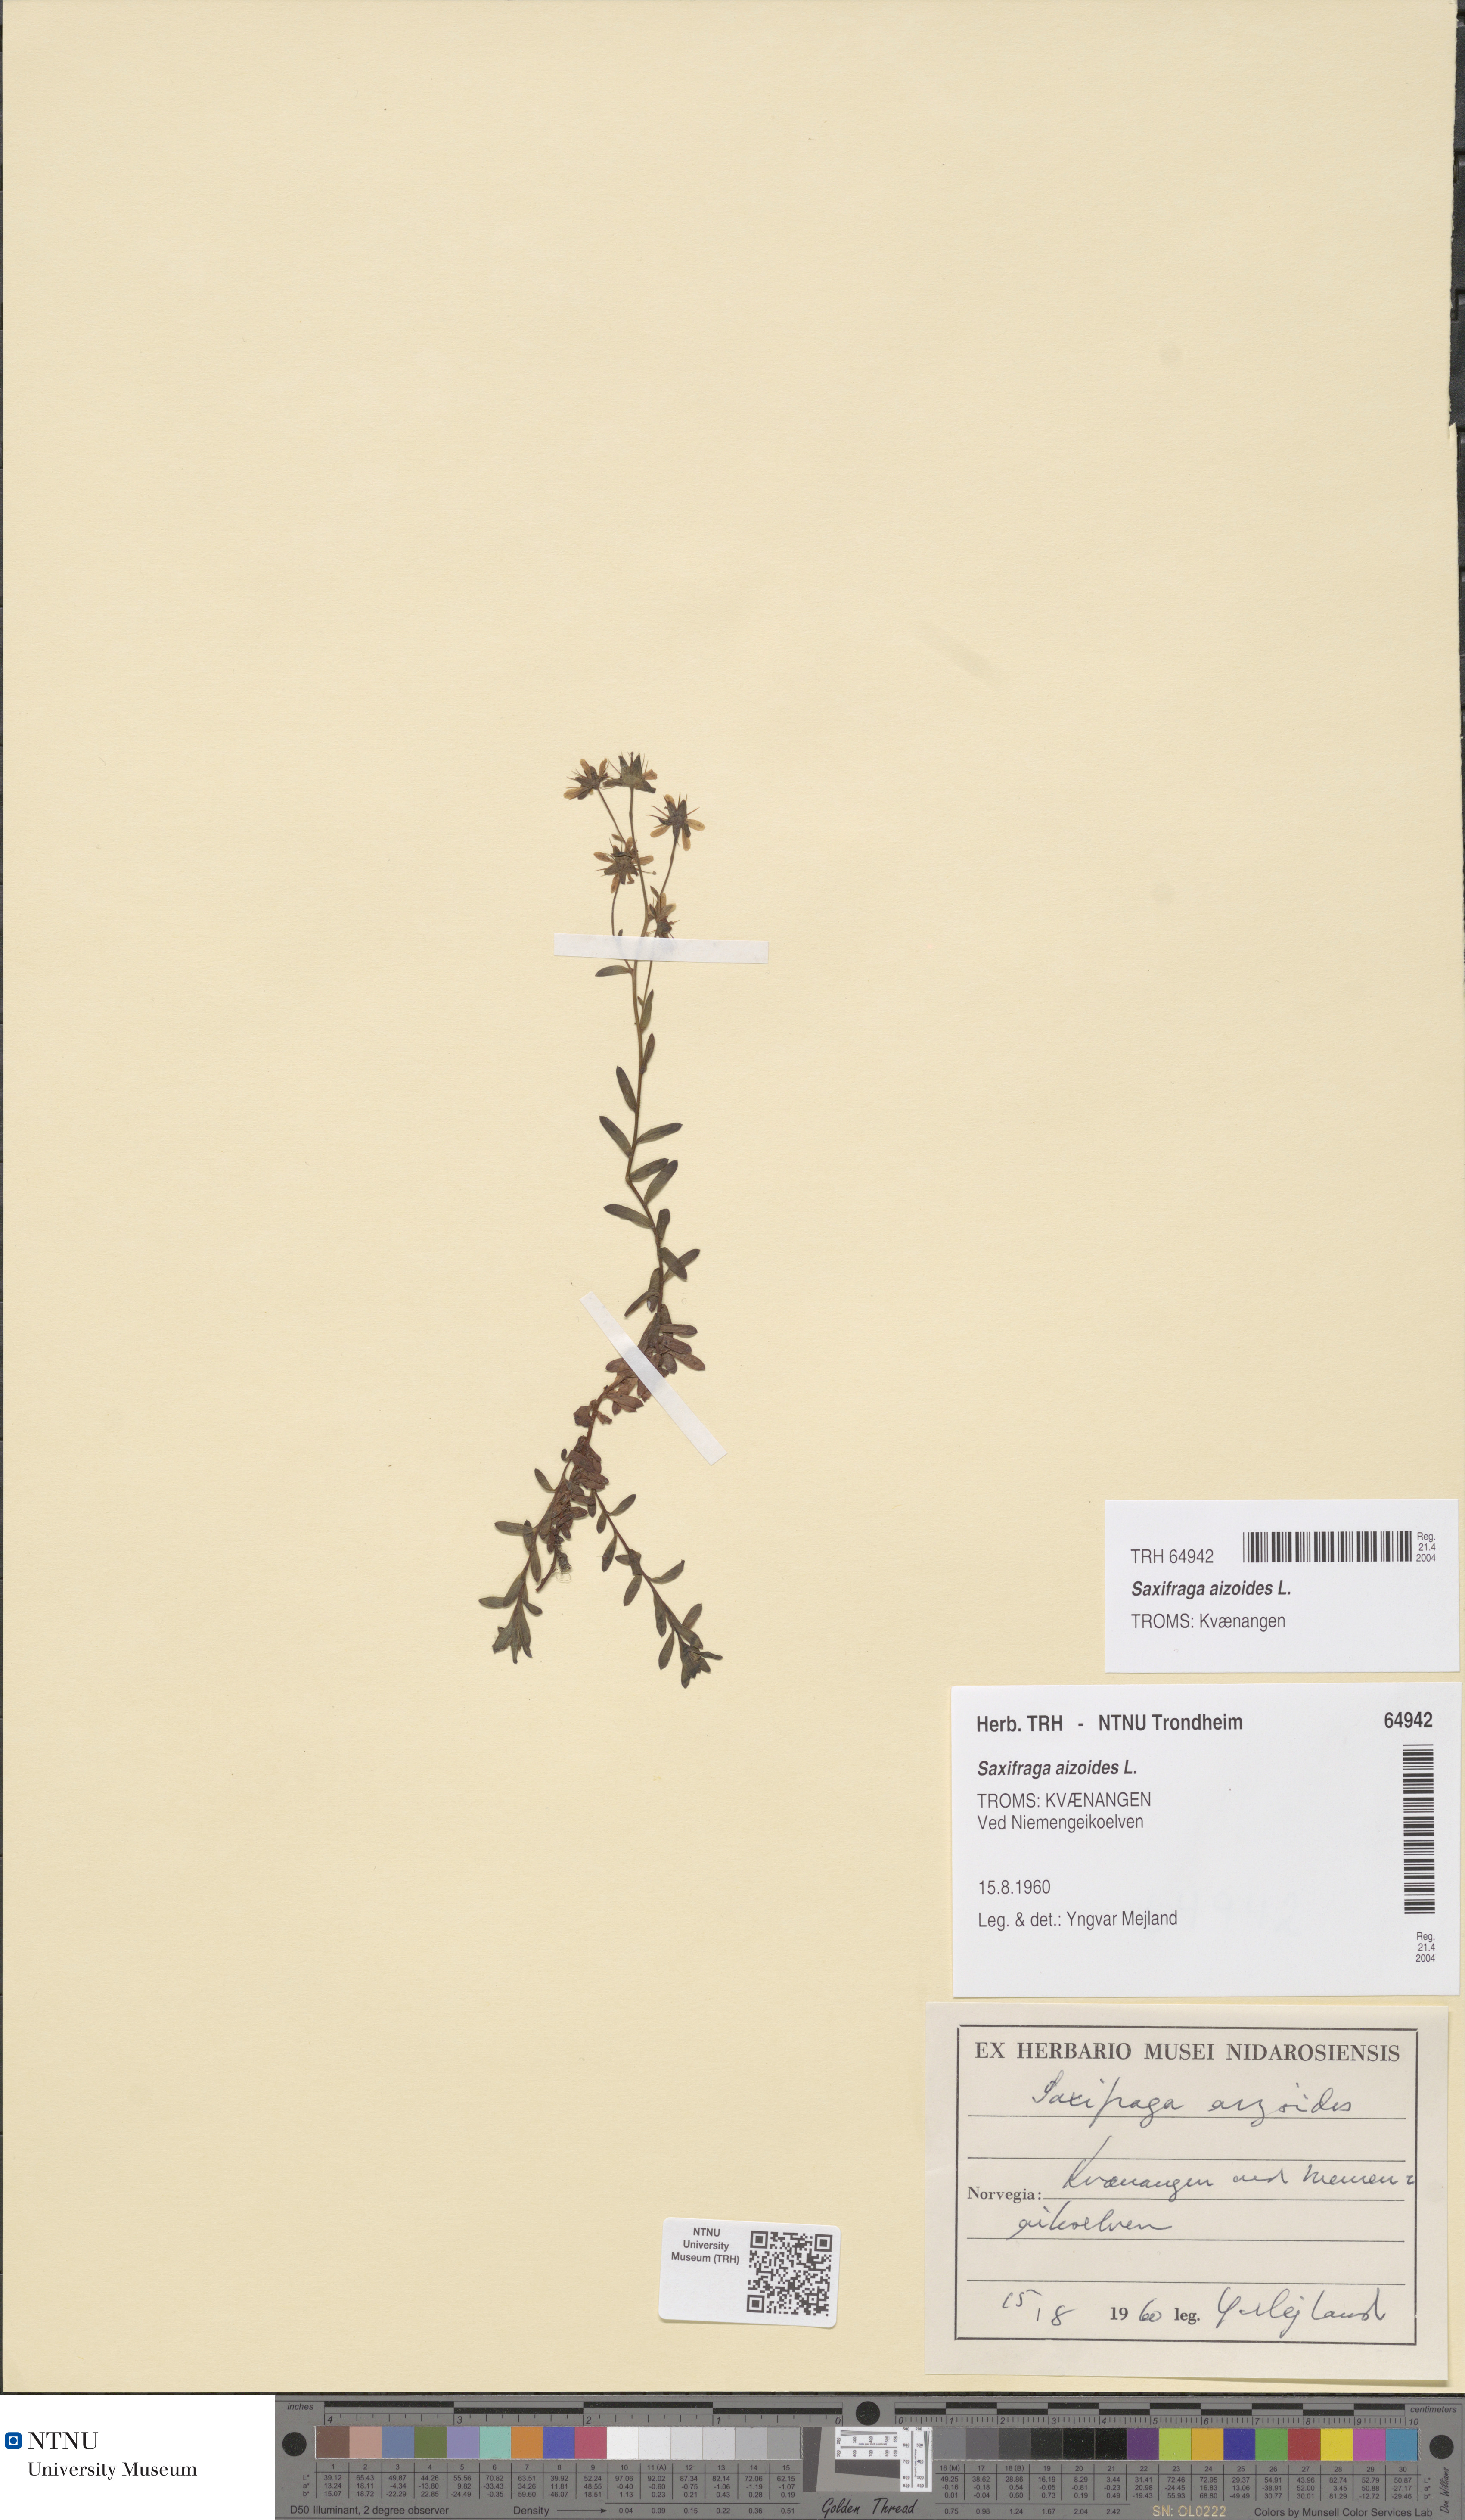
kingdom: Plantae
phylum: Tracheophyta
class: Magnoliopsida
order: Saxifragales
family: Saxifragaceae
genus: Saxifraga
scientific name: Saxifraga aizoides
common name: Yellow mountain saxifrage
